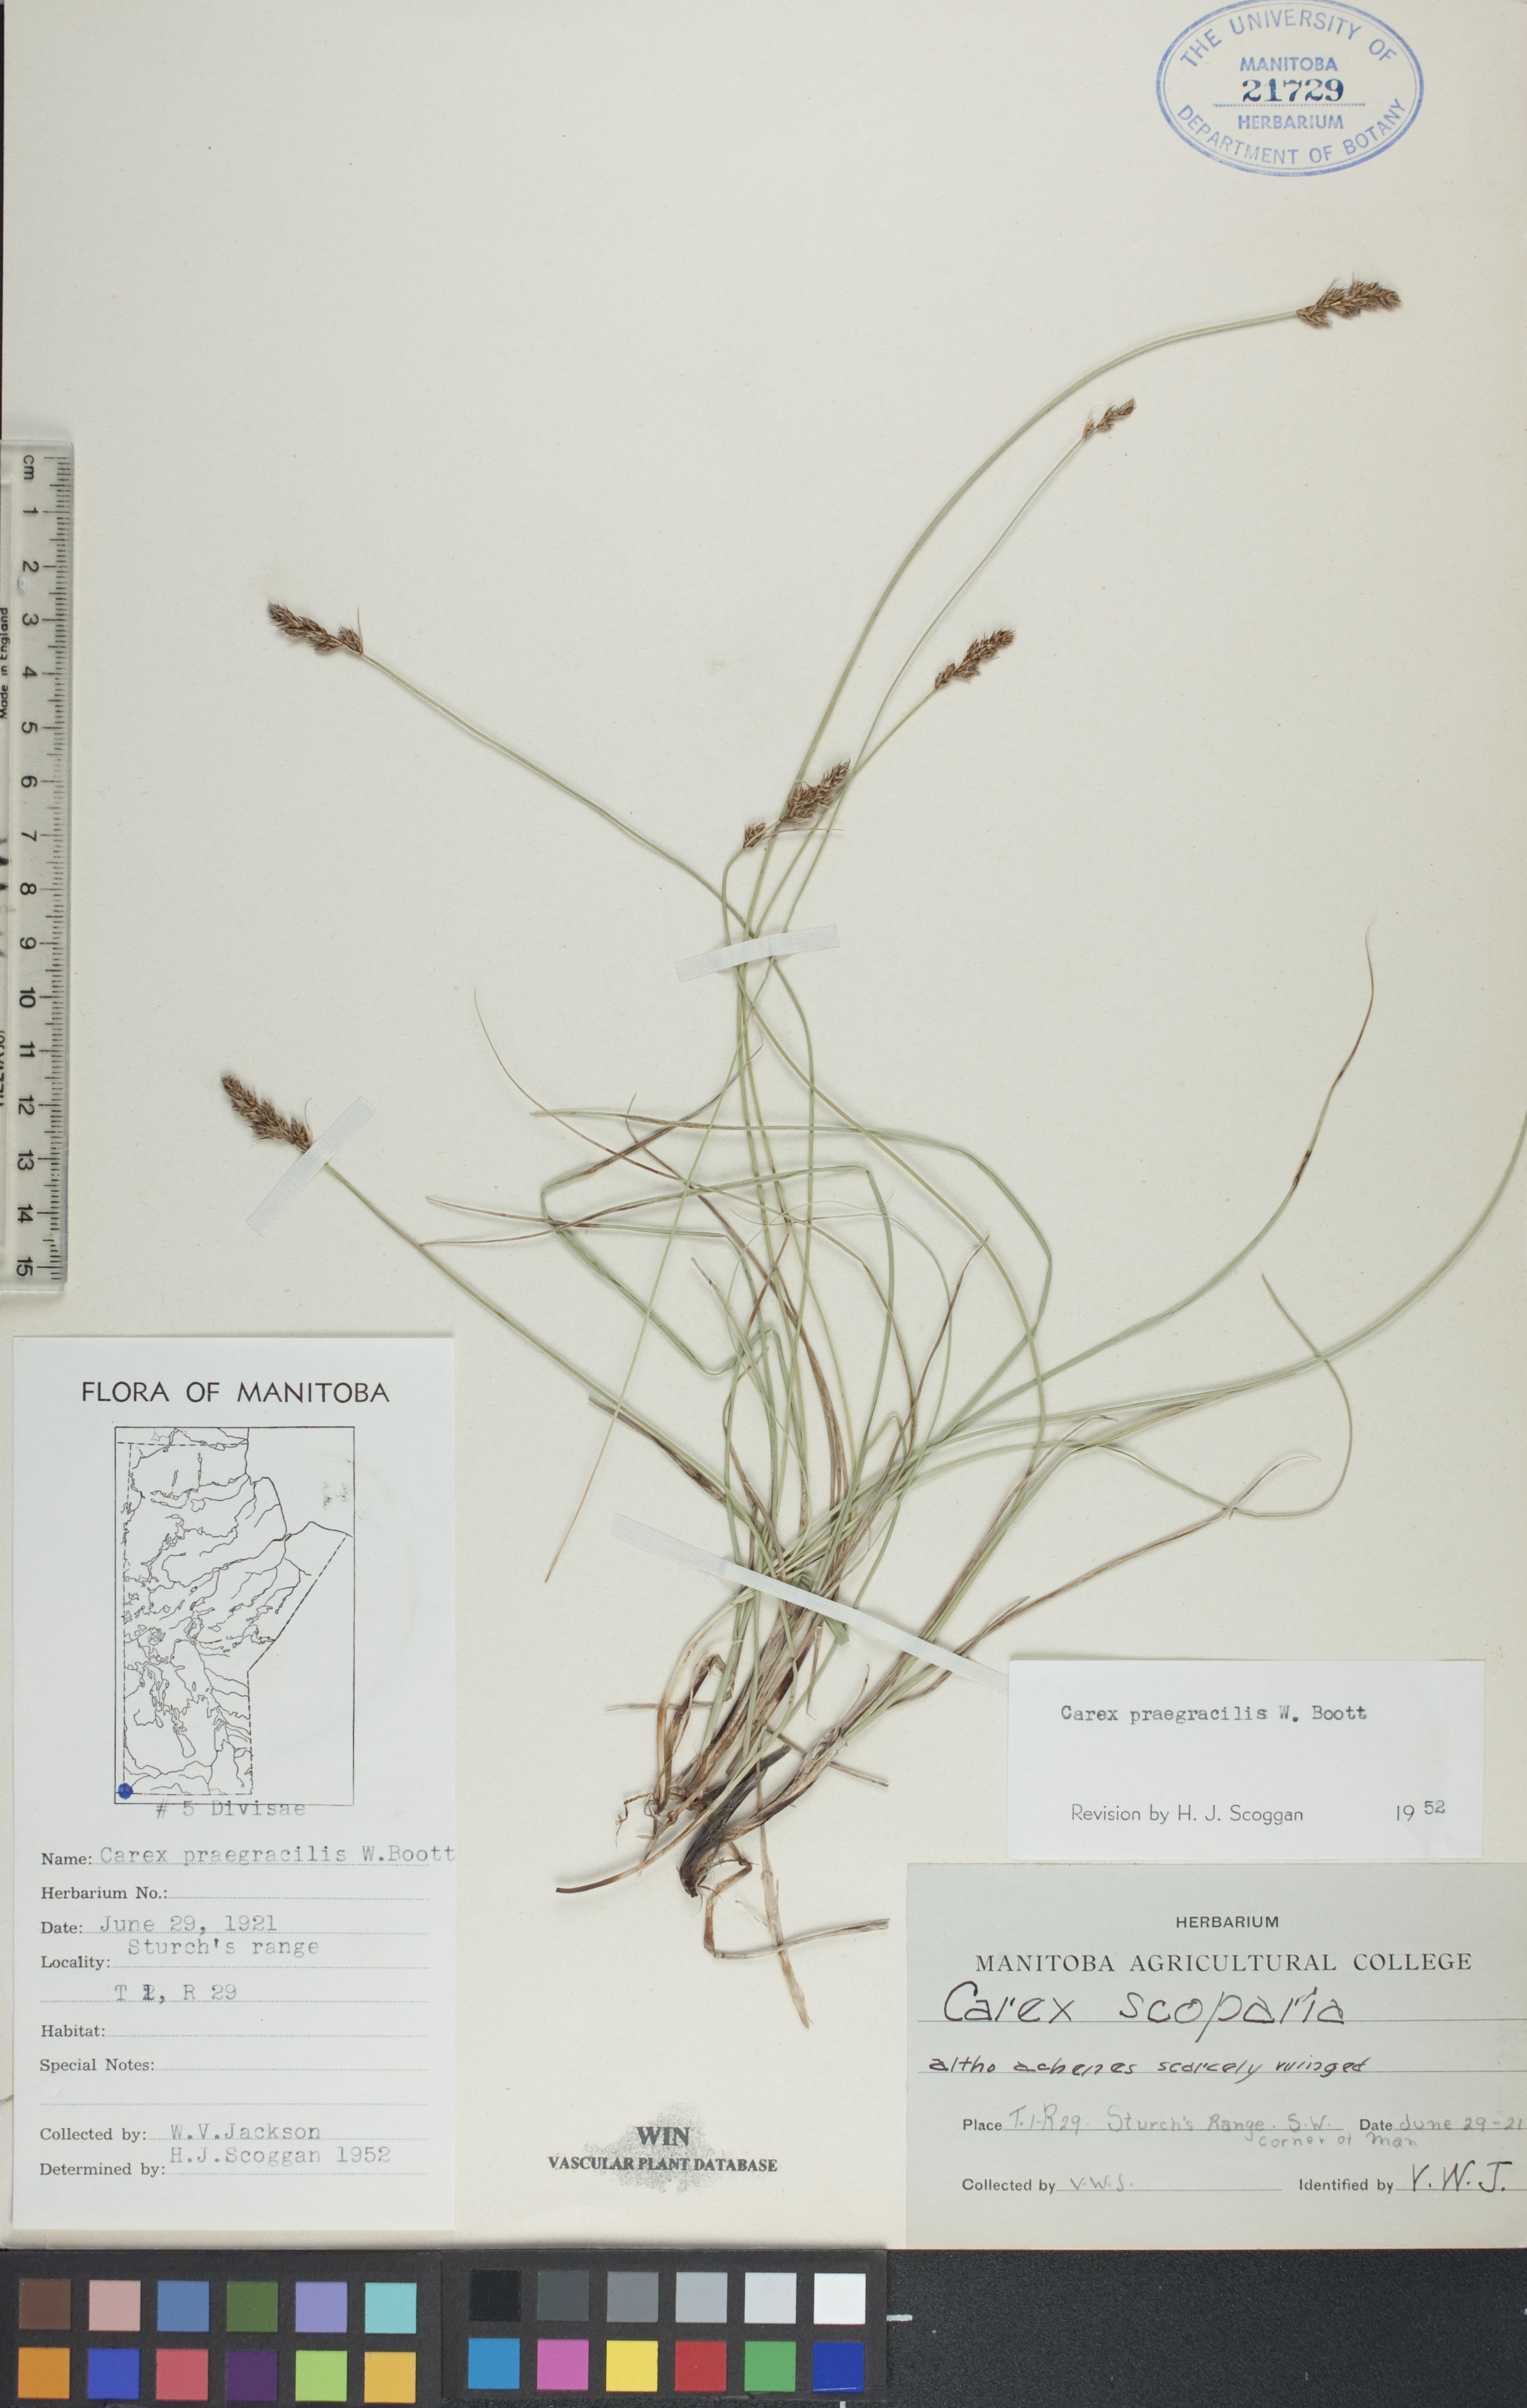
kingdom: Plantae
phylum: Tracheophyta
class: Liliopsida
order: Poales
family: Cyperaceae
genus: Carex
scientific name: Carex praegracilis
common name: Black creeper sedge
